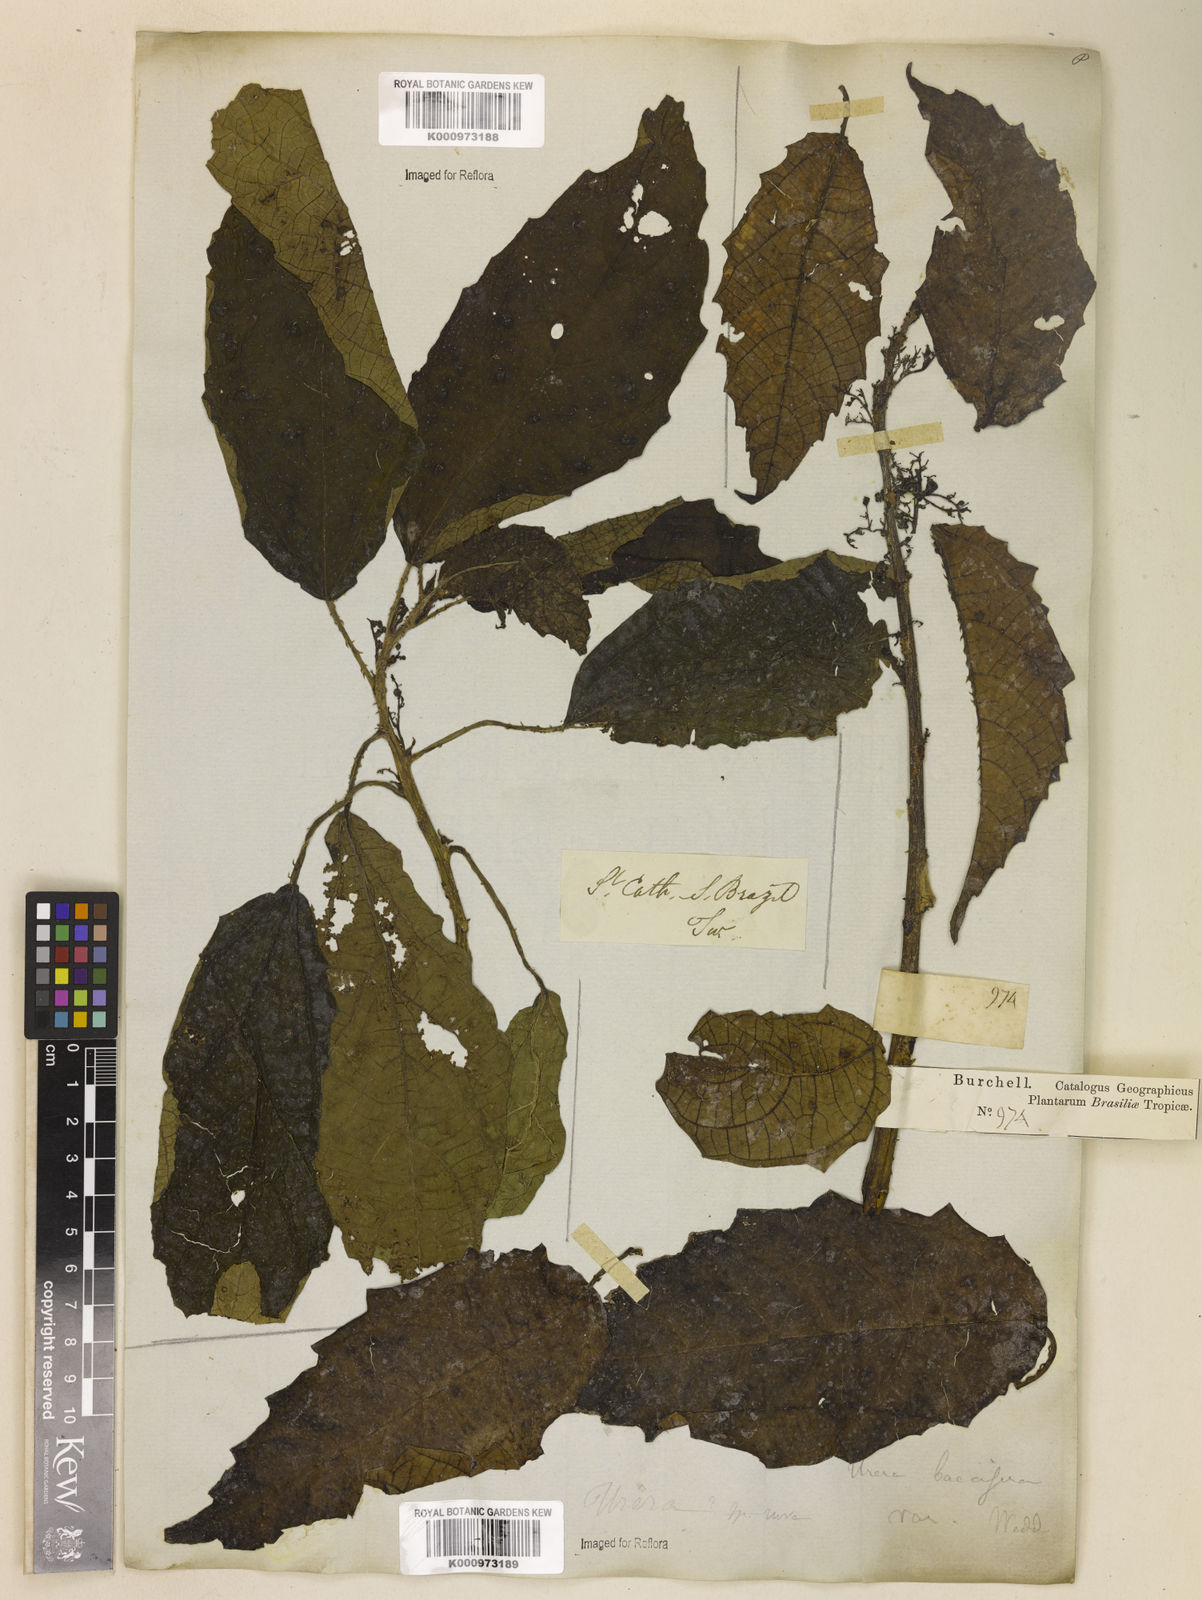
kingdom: Plantae
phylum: Tracheophyta
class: Magnoliopsida
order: Rosales
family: Urticaceae
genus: Urera
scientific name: Urera baccifera
